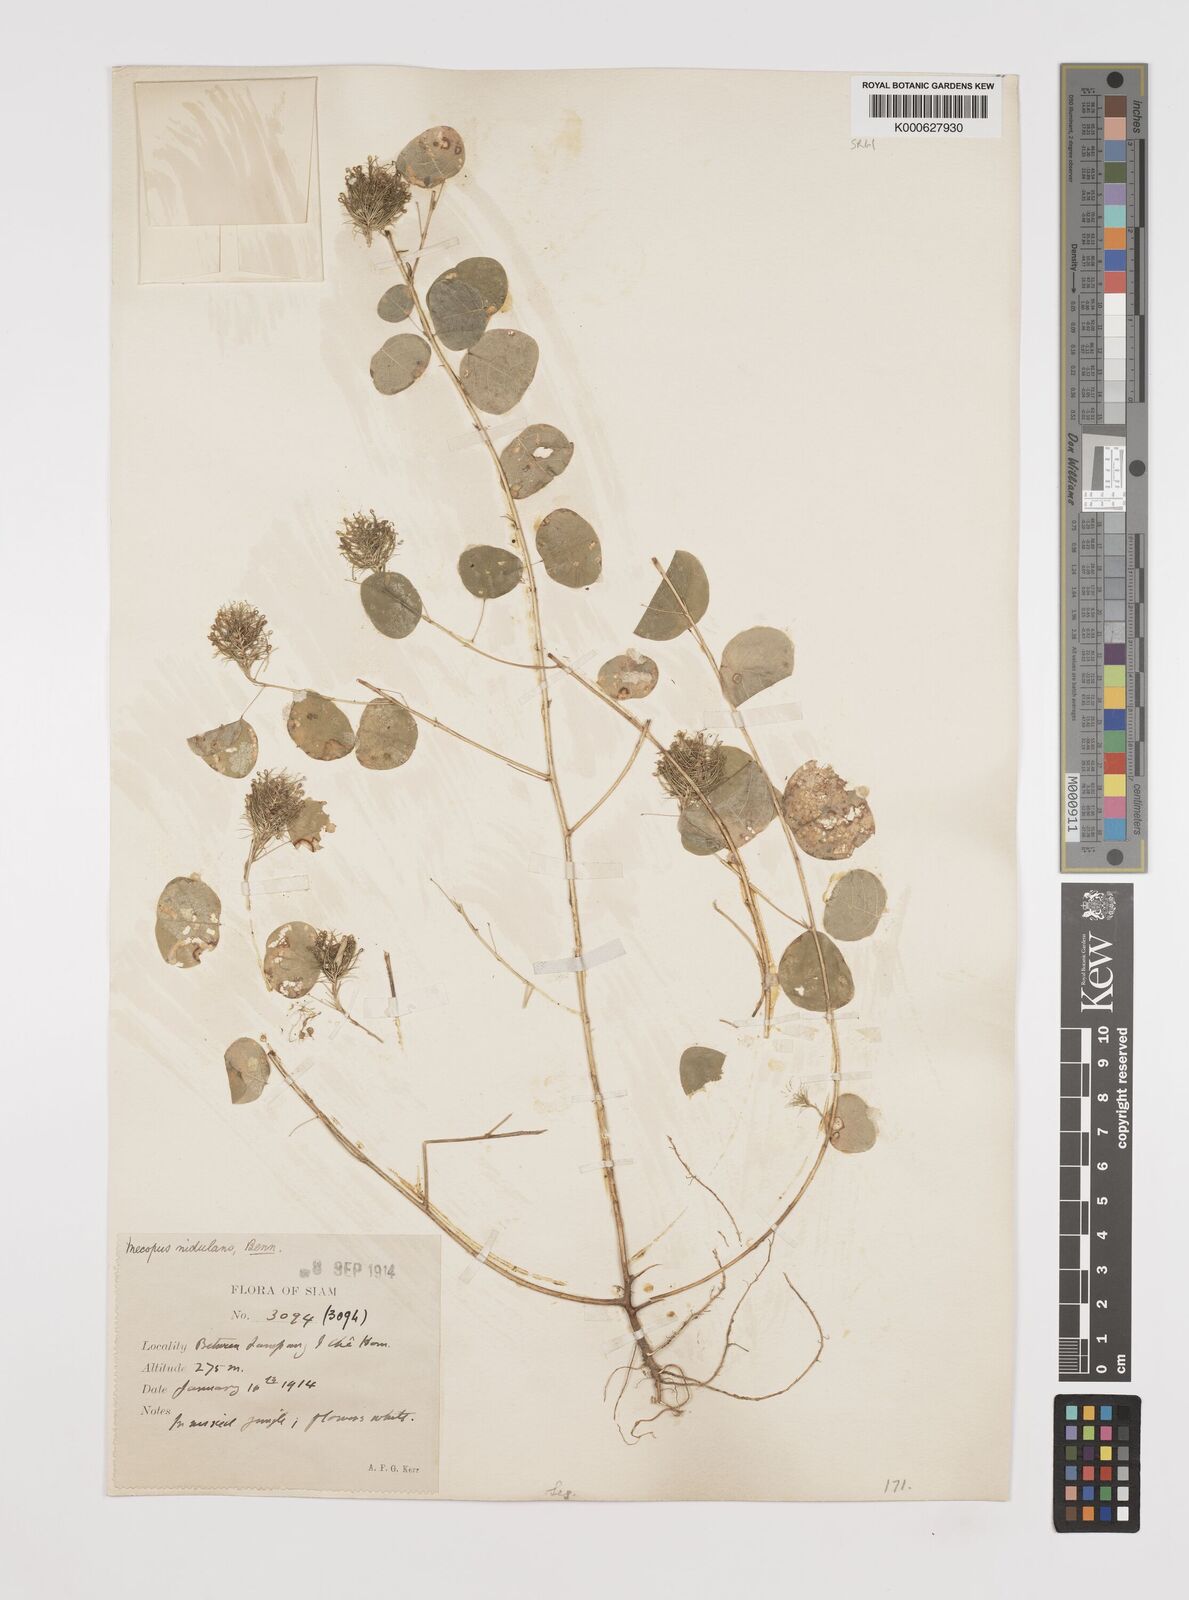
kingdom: Plantae
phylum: Tracheophyta
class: Magnoliopsida
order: Fabales
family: Fabaceae
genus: Mecopus
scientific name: Mecopus nidulans
